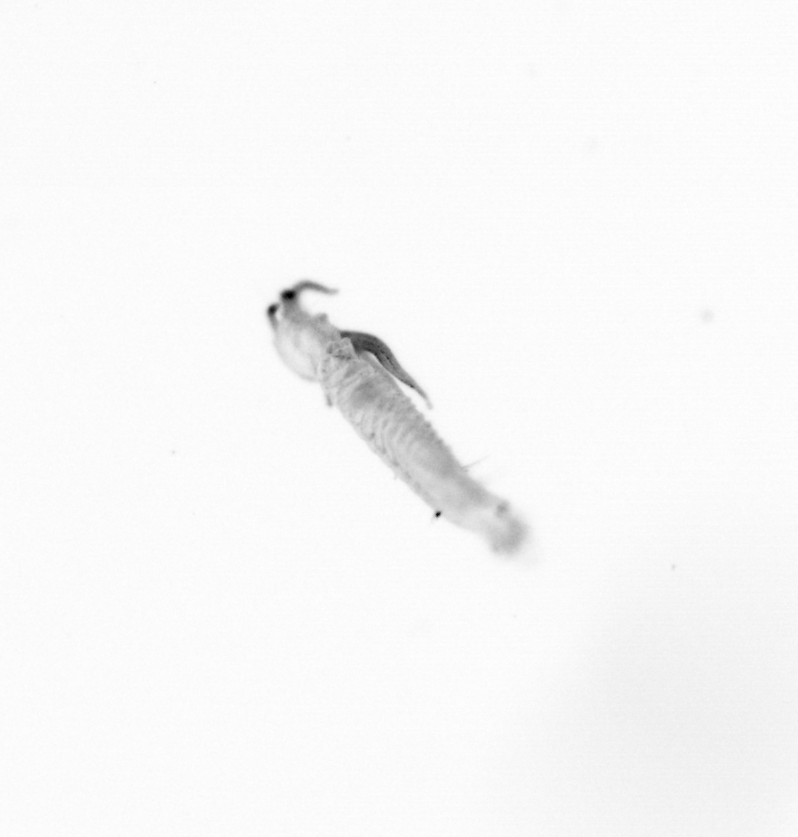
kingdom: Animalia
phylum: Annelida
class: Polychaeta
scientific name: Polychaeta
